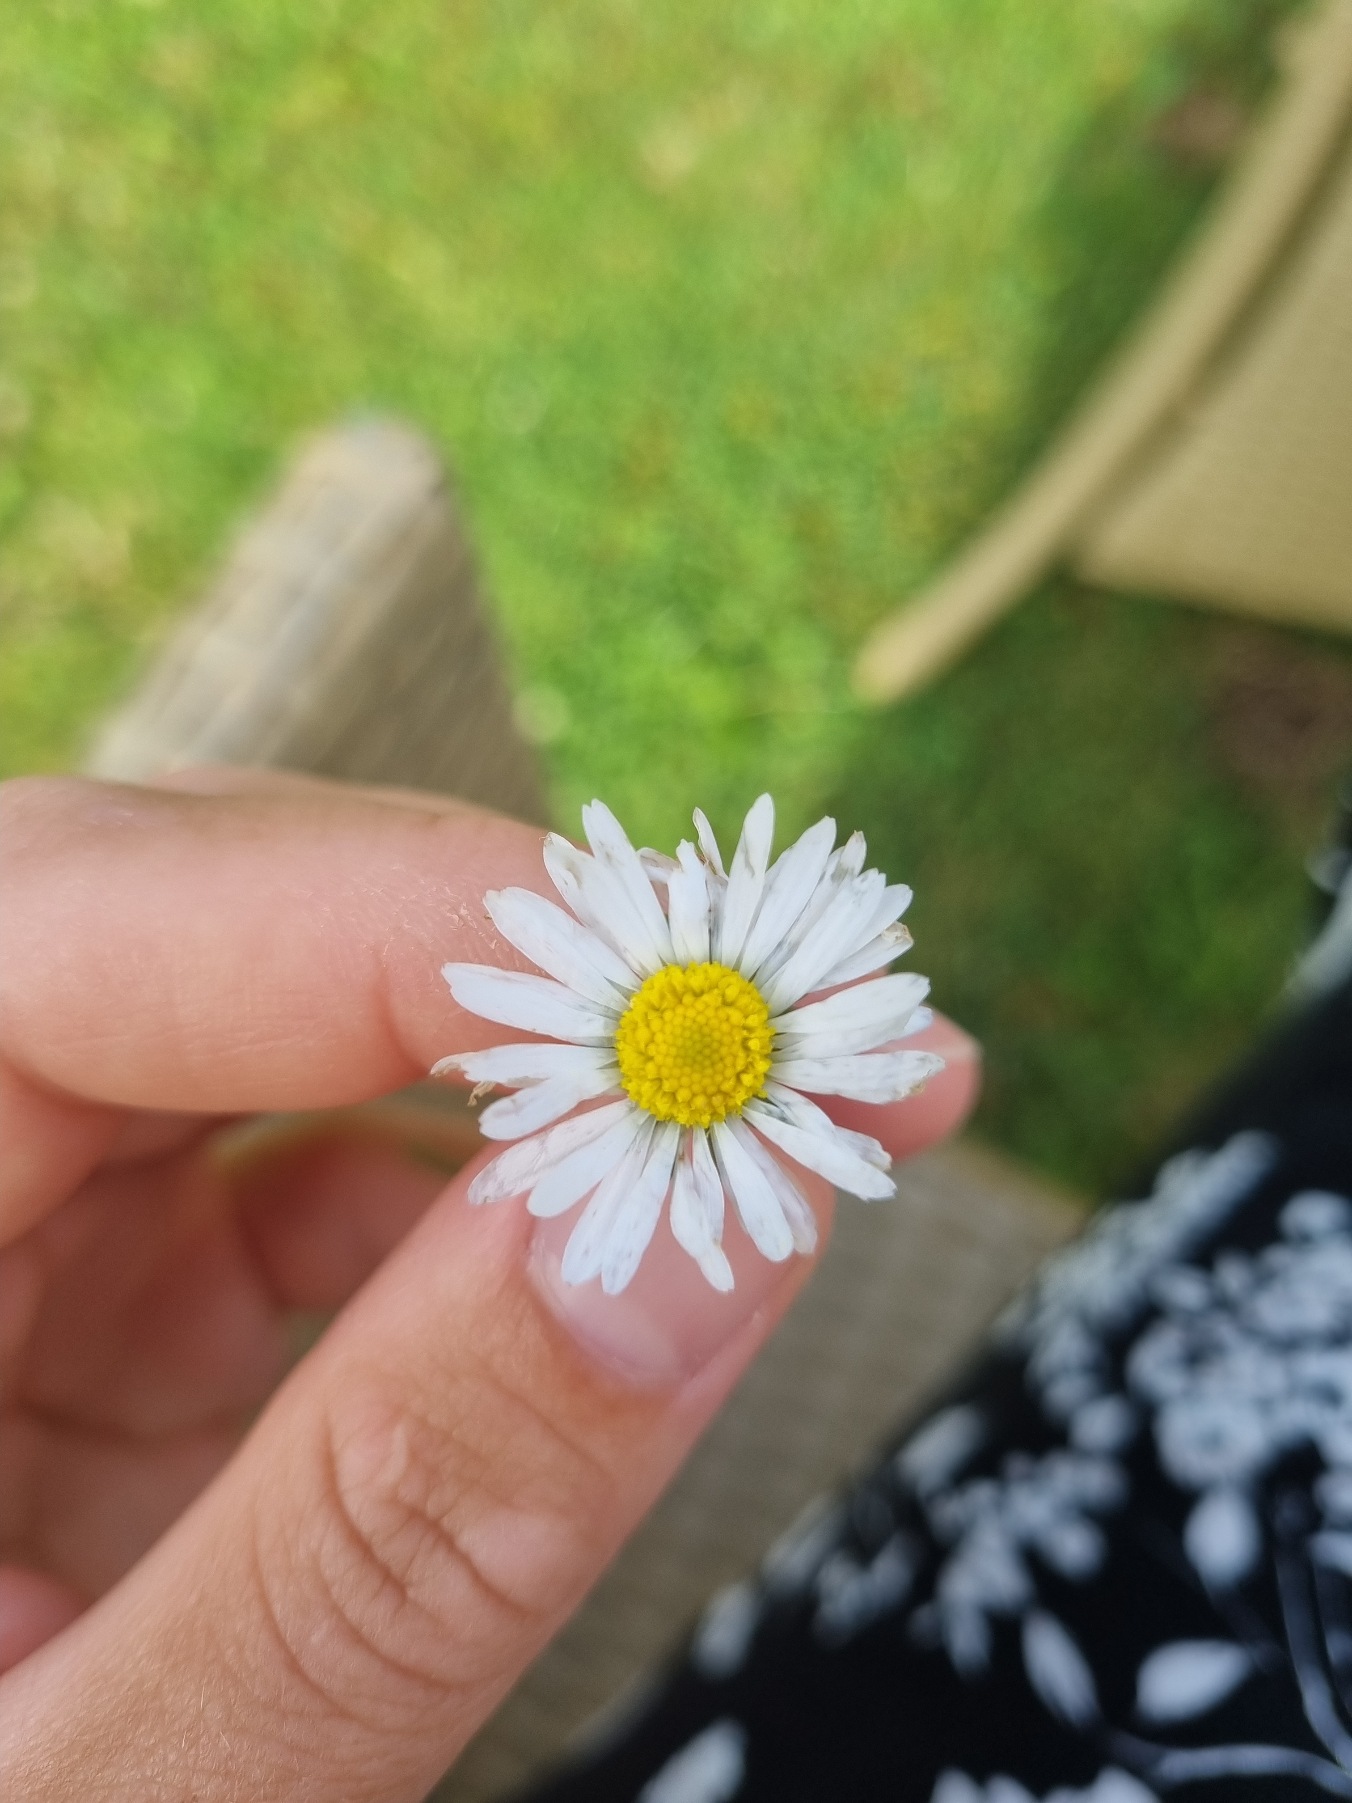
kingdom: Plantae
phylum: Tracheophyta
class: Magnoliopsida
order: Asterales
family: Asteraceae
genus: Bellis
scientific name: Bellis perennis
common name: Tusindfryd
